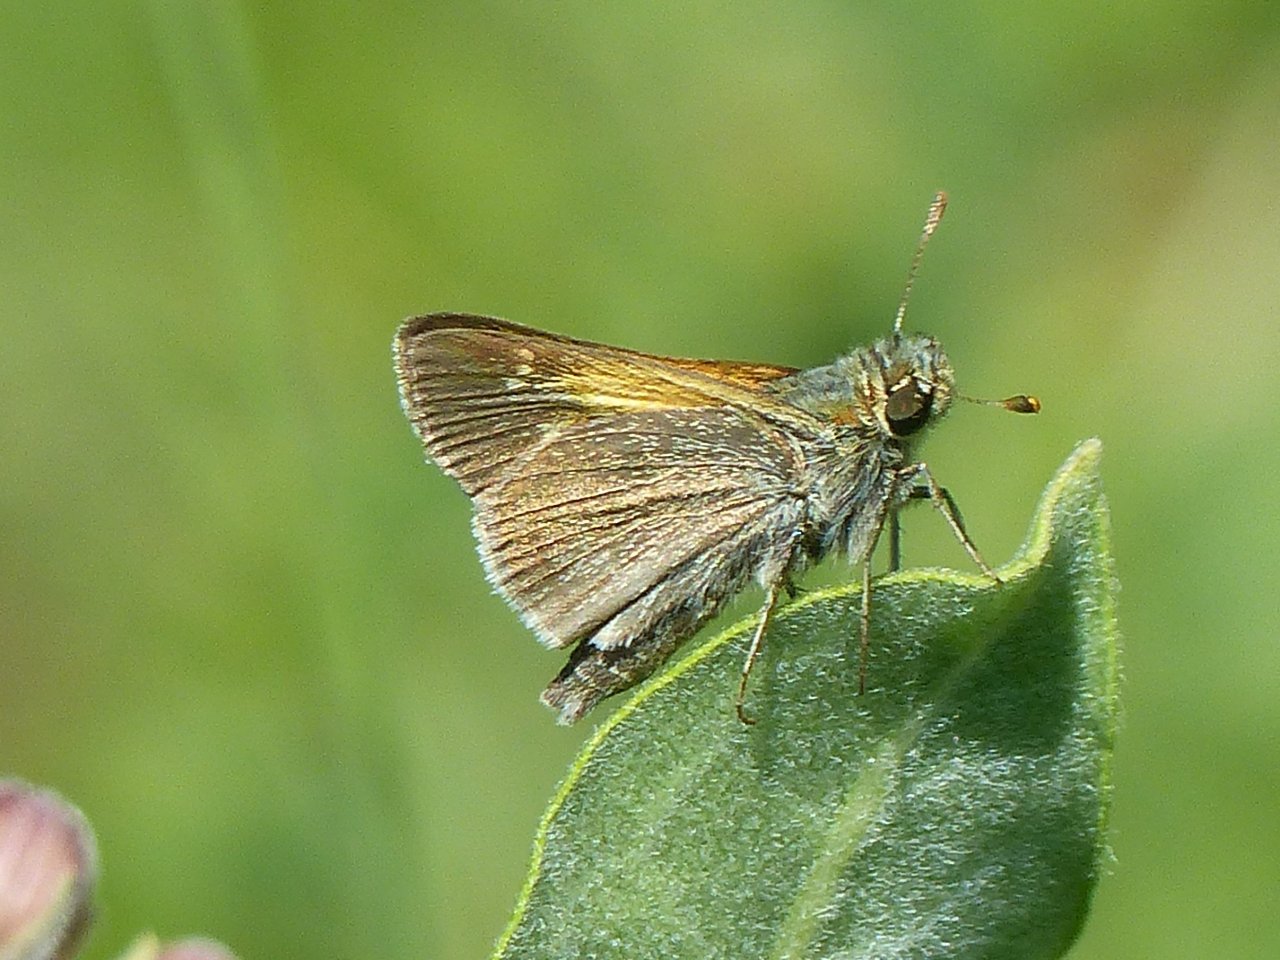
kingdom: Animalia
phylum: Arthropoda
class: Insecta
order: Lepidoptera
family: Hesperiidae
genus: Polites
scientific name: Polites themistocles
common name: Tawny-edged Skipper
